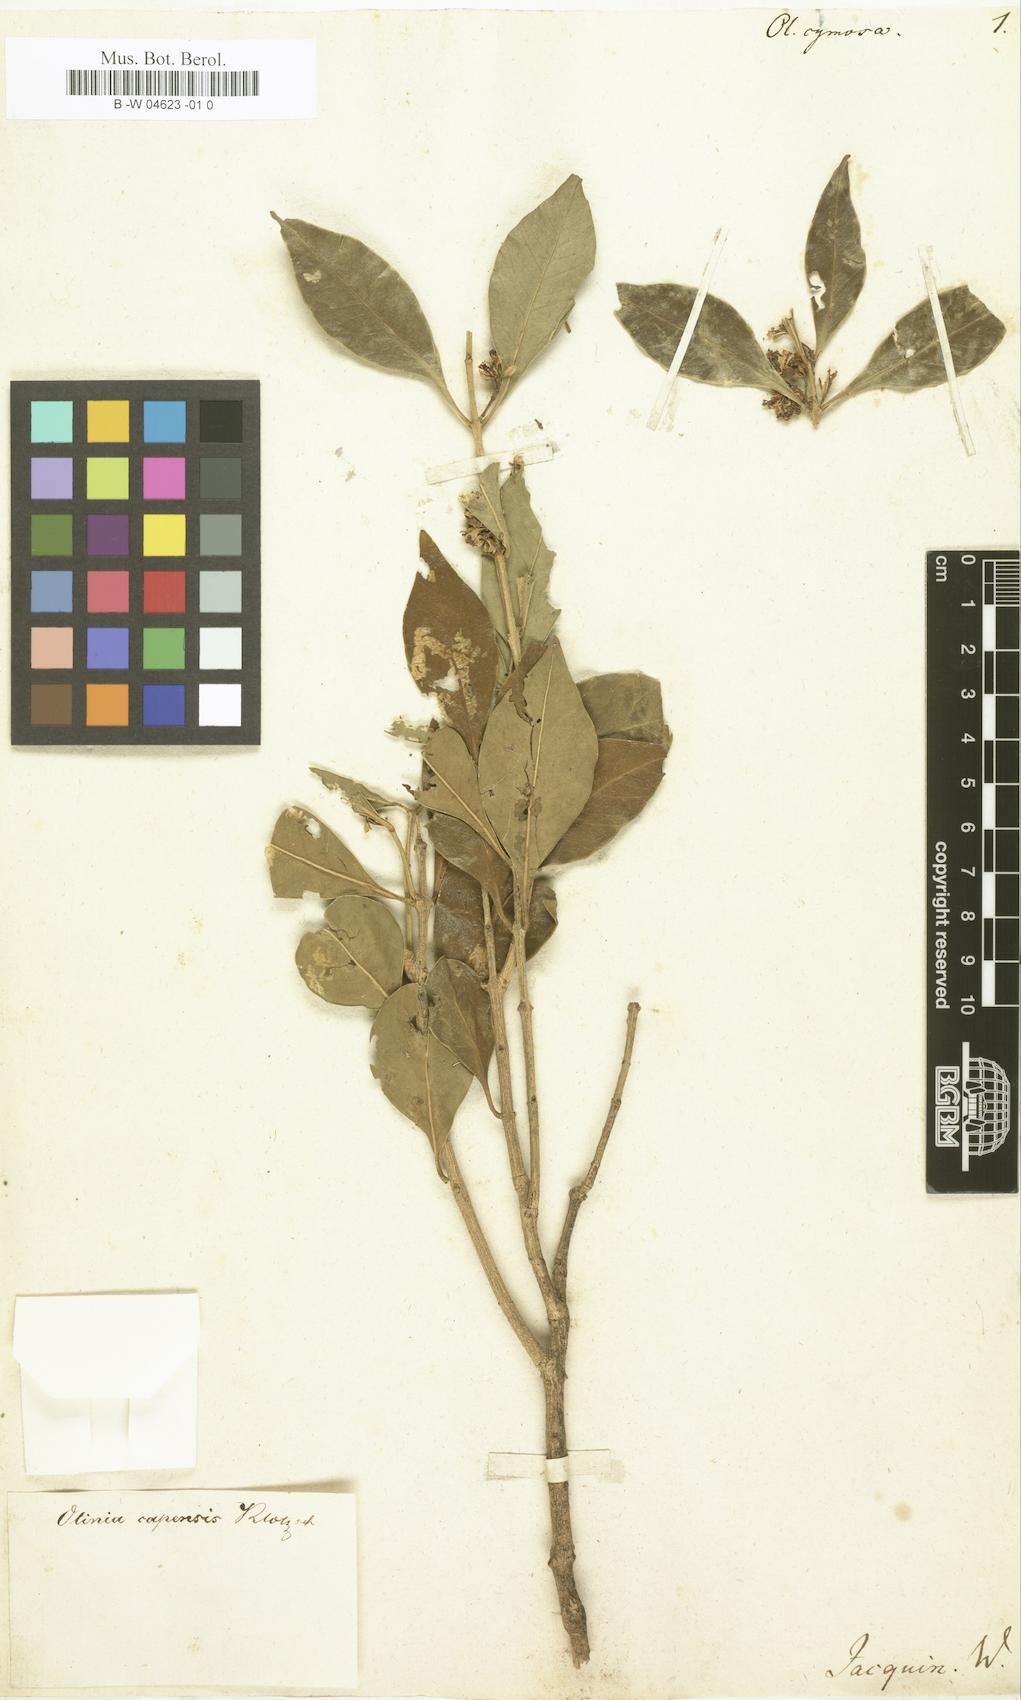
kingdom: Plantae
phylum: Tracheophyta
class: Magnoliopsida
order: Myrtales
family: Penaeaceae
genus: Olinia
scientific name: Olinia ventosa
